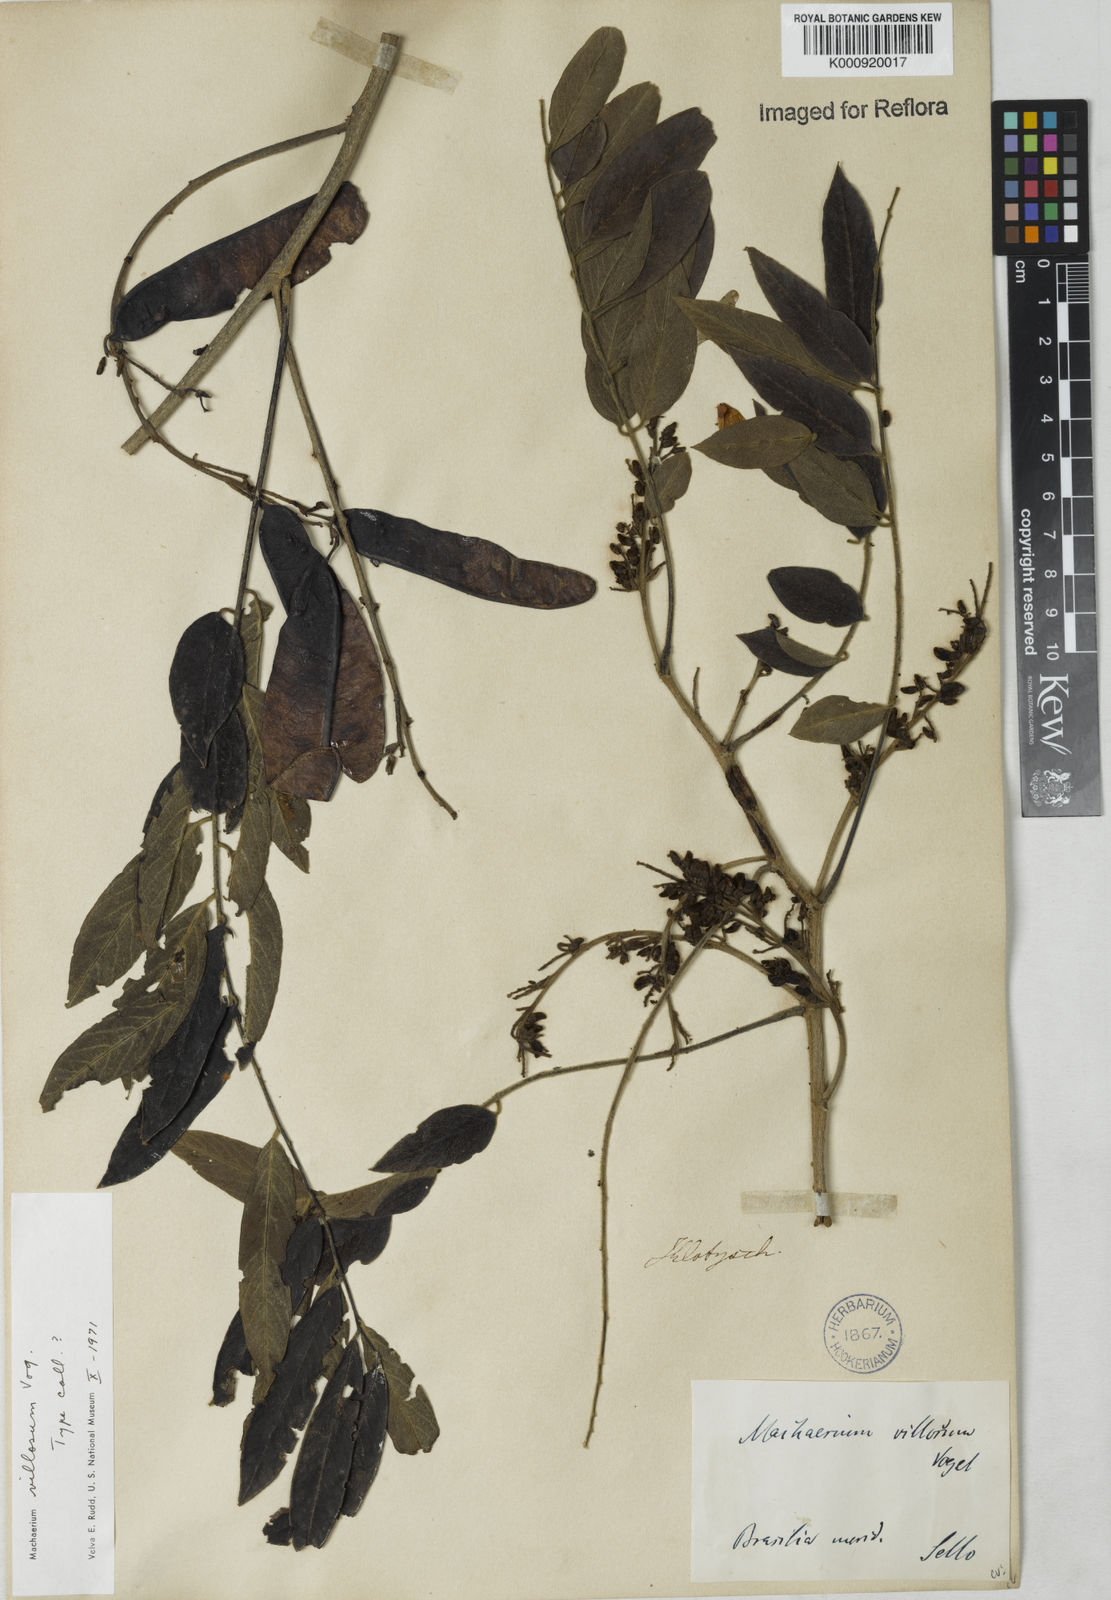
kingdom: Plantae
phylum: Tracheophyta
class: Magnoliopsida
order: Fabales
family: Fabaceae
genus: Machaerium
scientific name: Machaerium villosum
